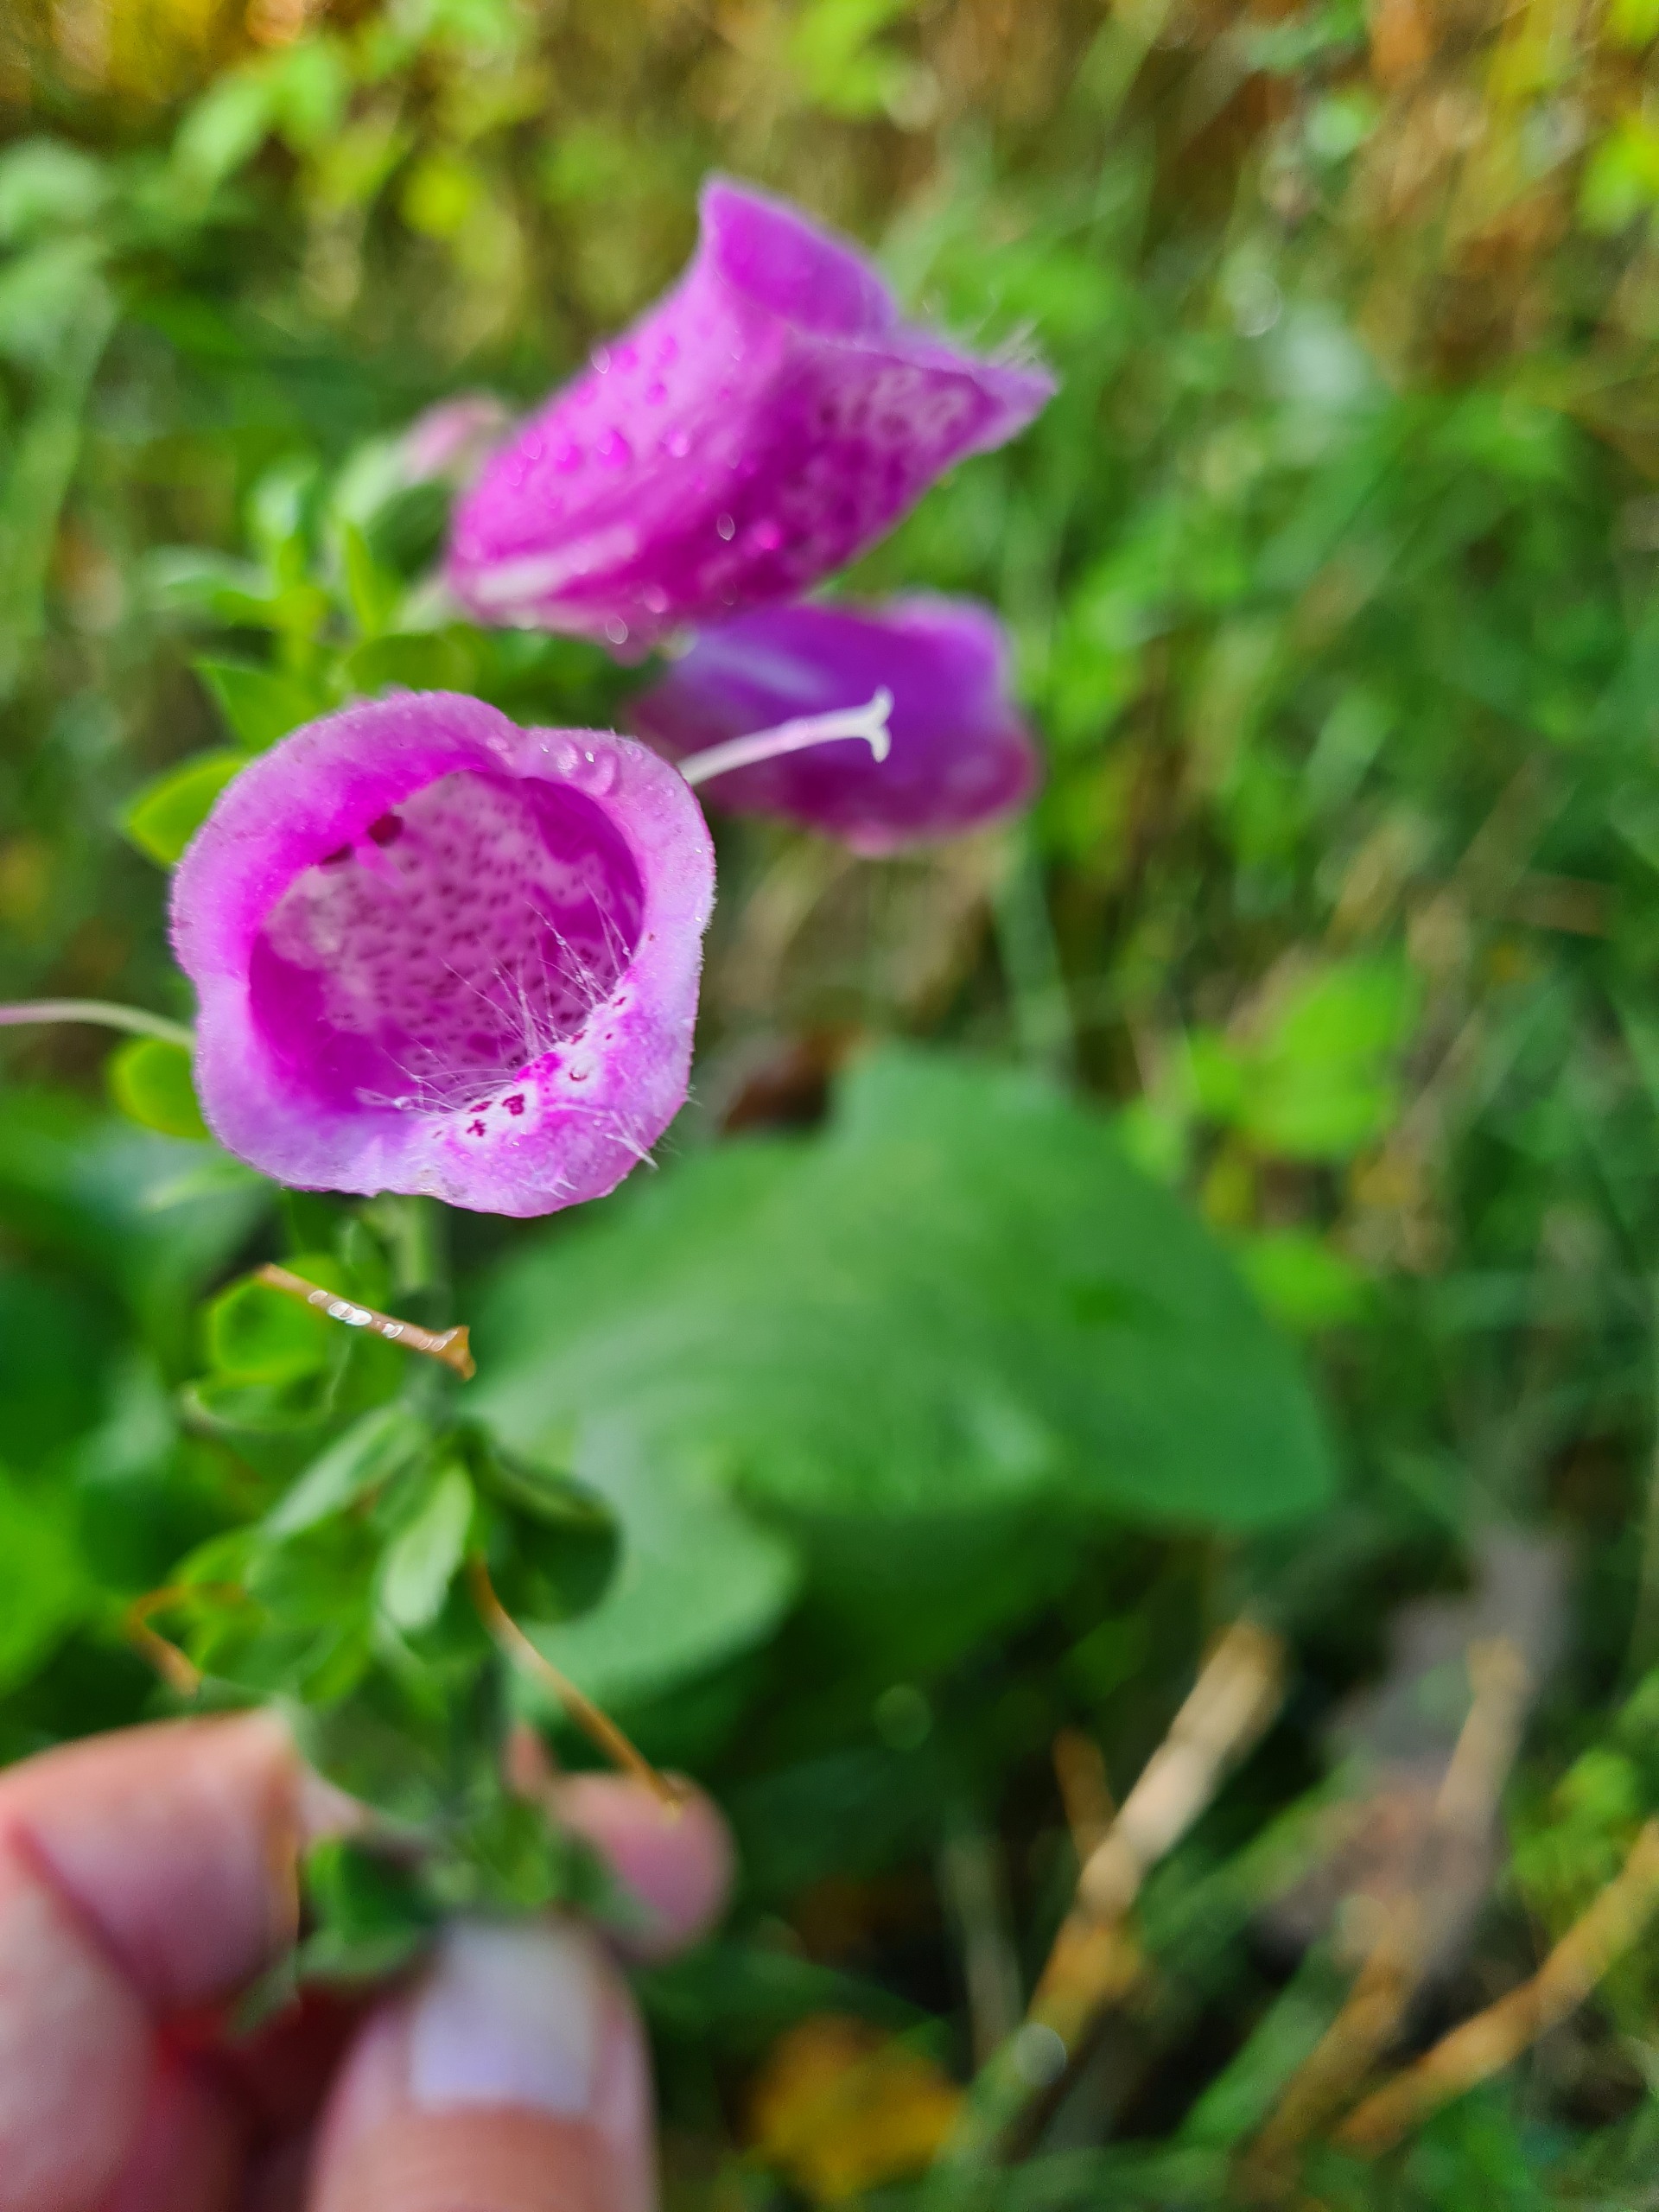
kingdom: Plantae
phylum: Tracheophyta
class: Magnoliopsida
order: Lamiales
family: Plantaginaceae
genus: Digitalis
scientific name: Digitalis purpurea
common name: Almindelig fingerbøl
